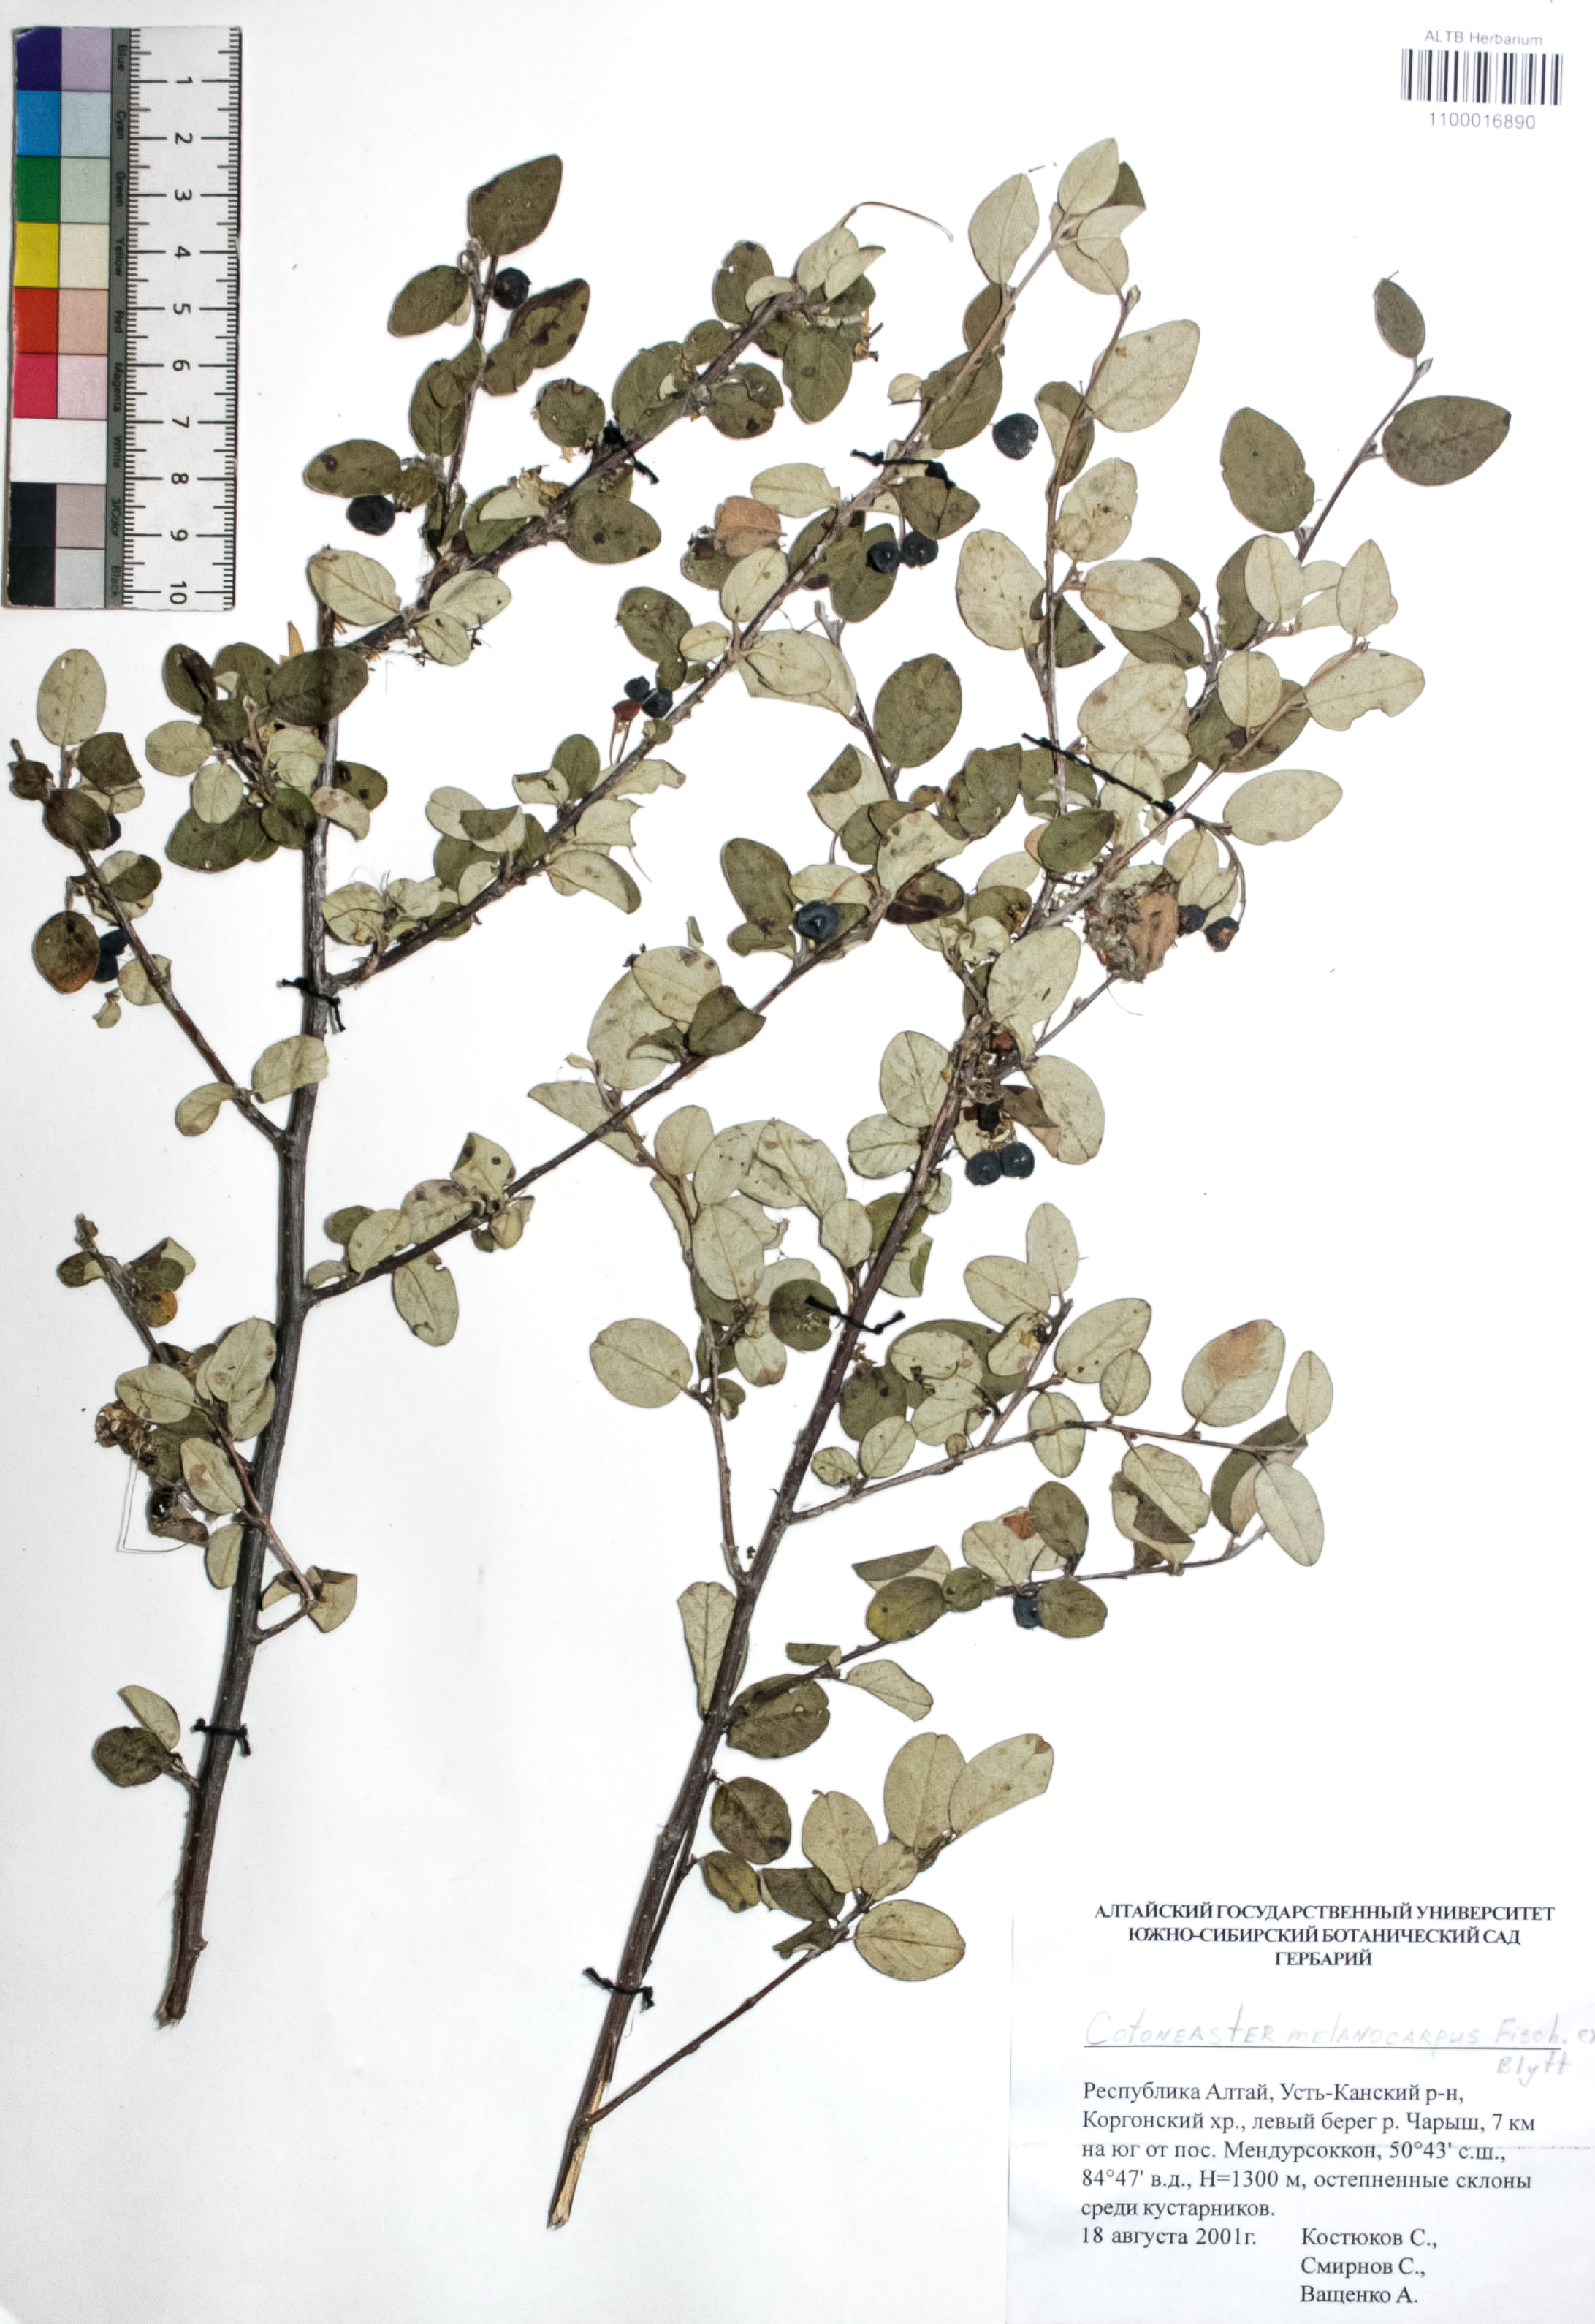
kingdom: Plantae
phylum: Tracheophyta
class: Magnoliopsida
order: Rosales
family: Rosaceae
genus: Cotoneaster
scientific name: Cotoneaster niger
